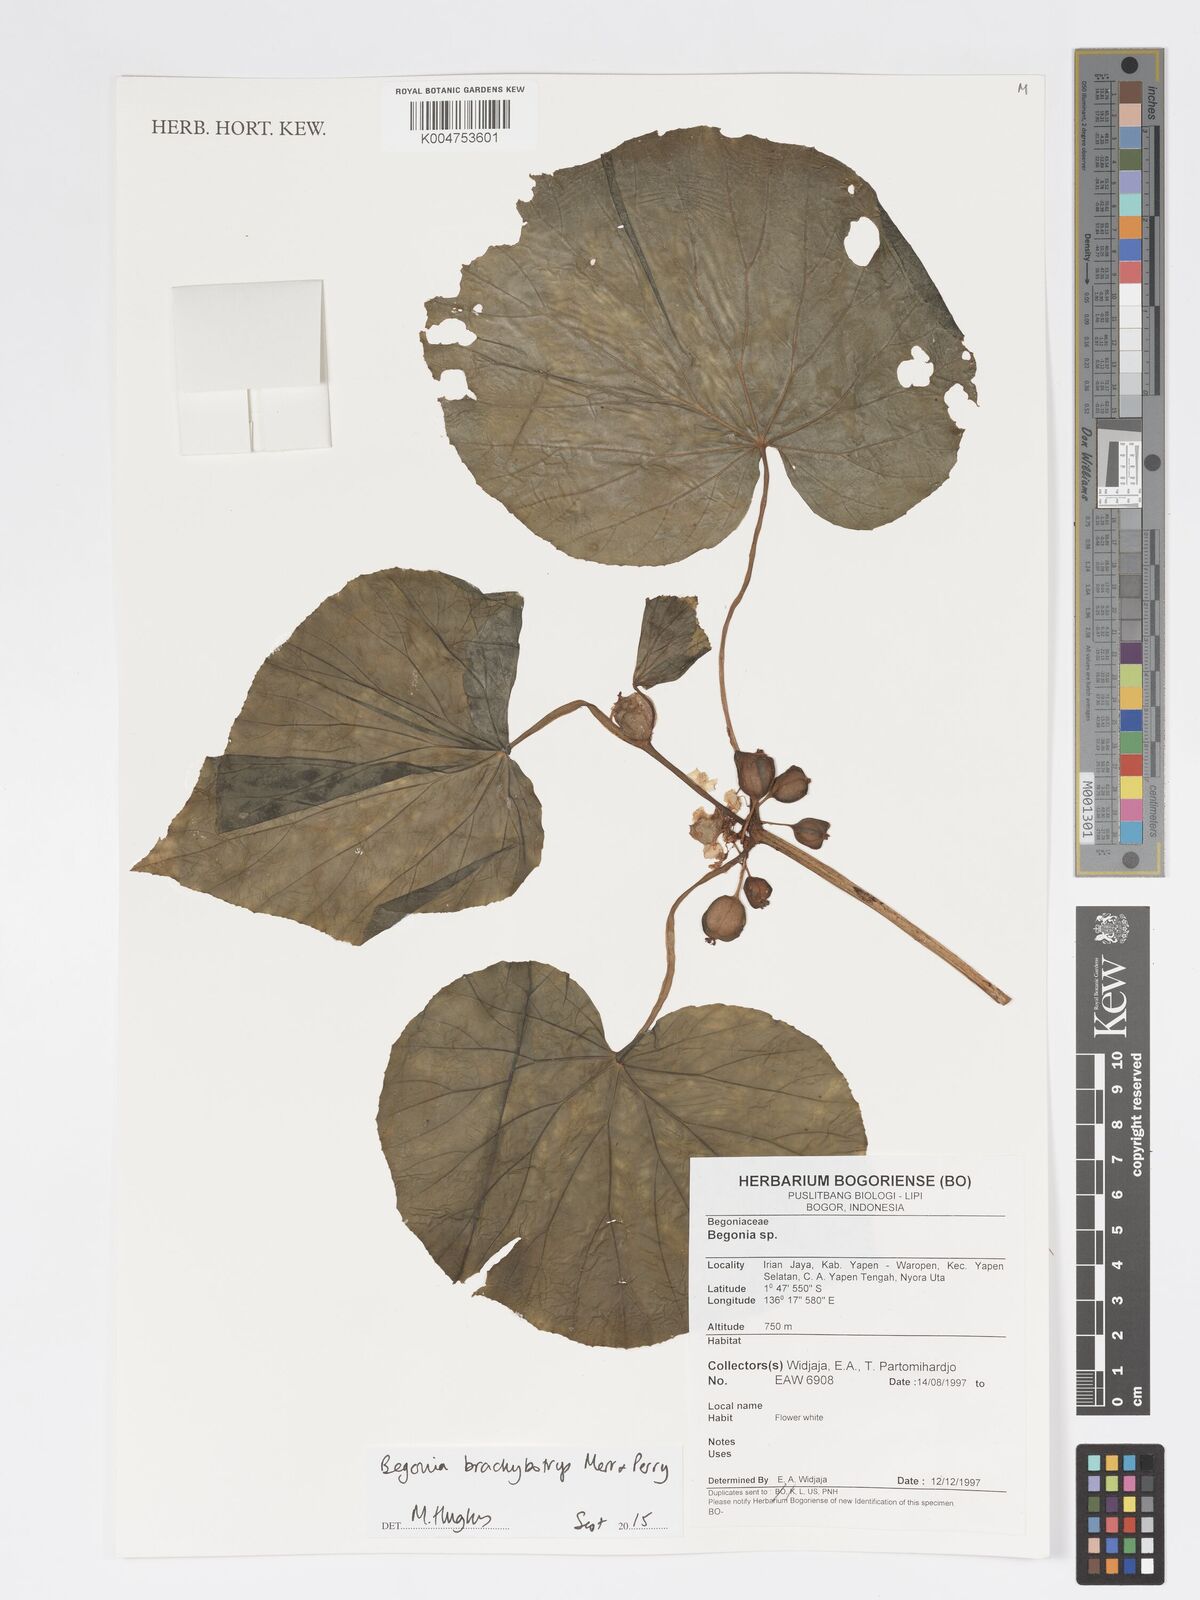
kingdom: Plantae
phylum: Tracheophyta
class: Magnoliopsida
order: Cucurbitales
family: Begoniaceae
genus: Begonia
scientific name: Begonia brachybotrys
